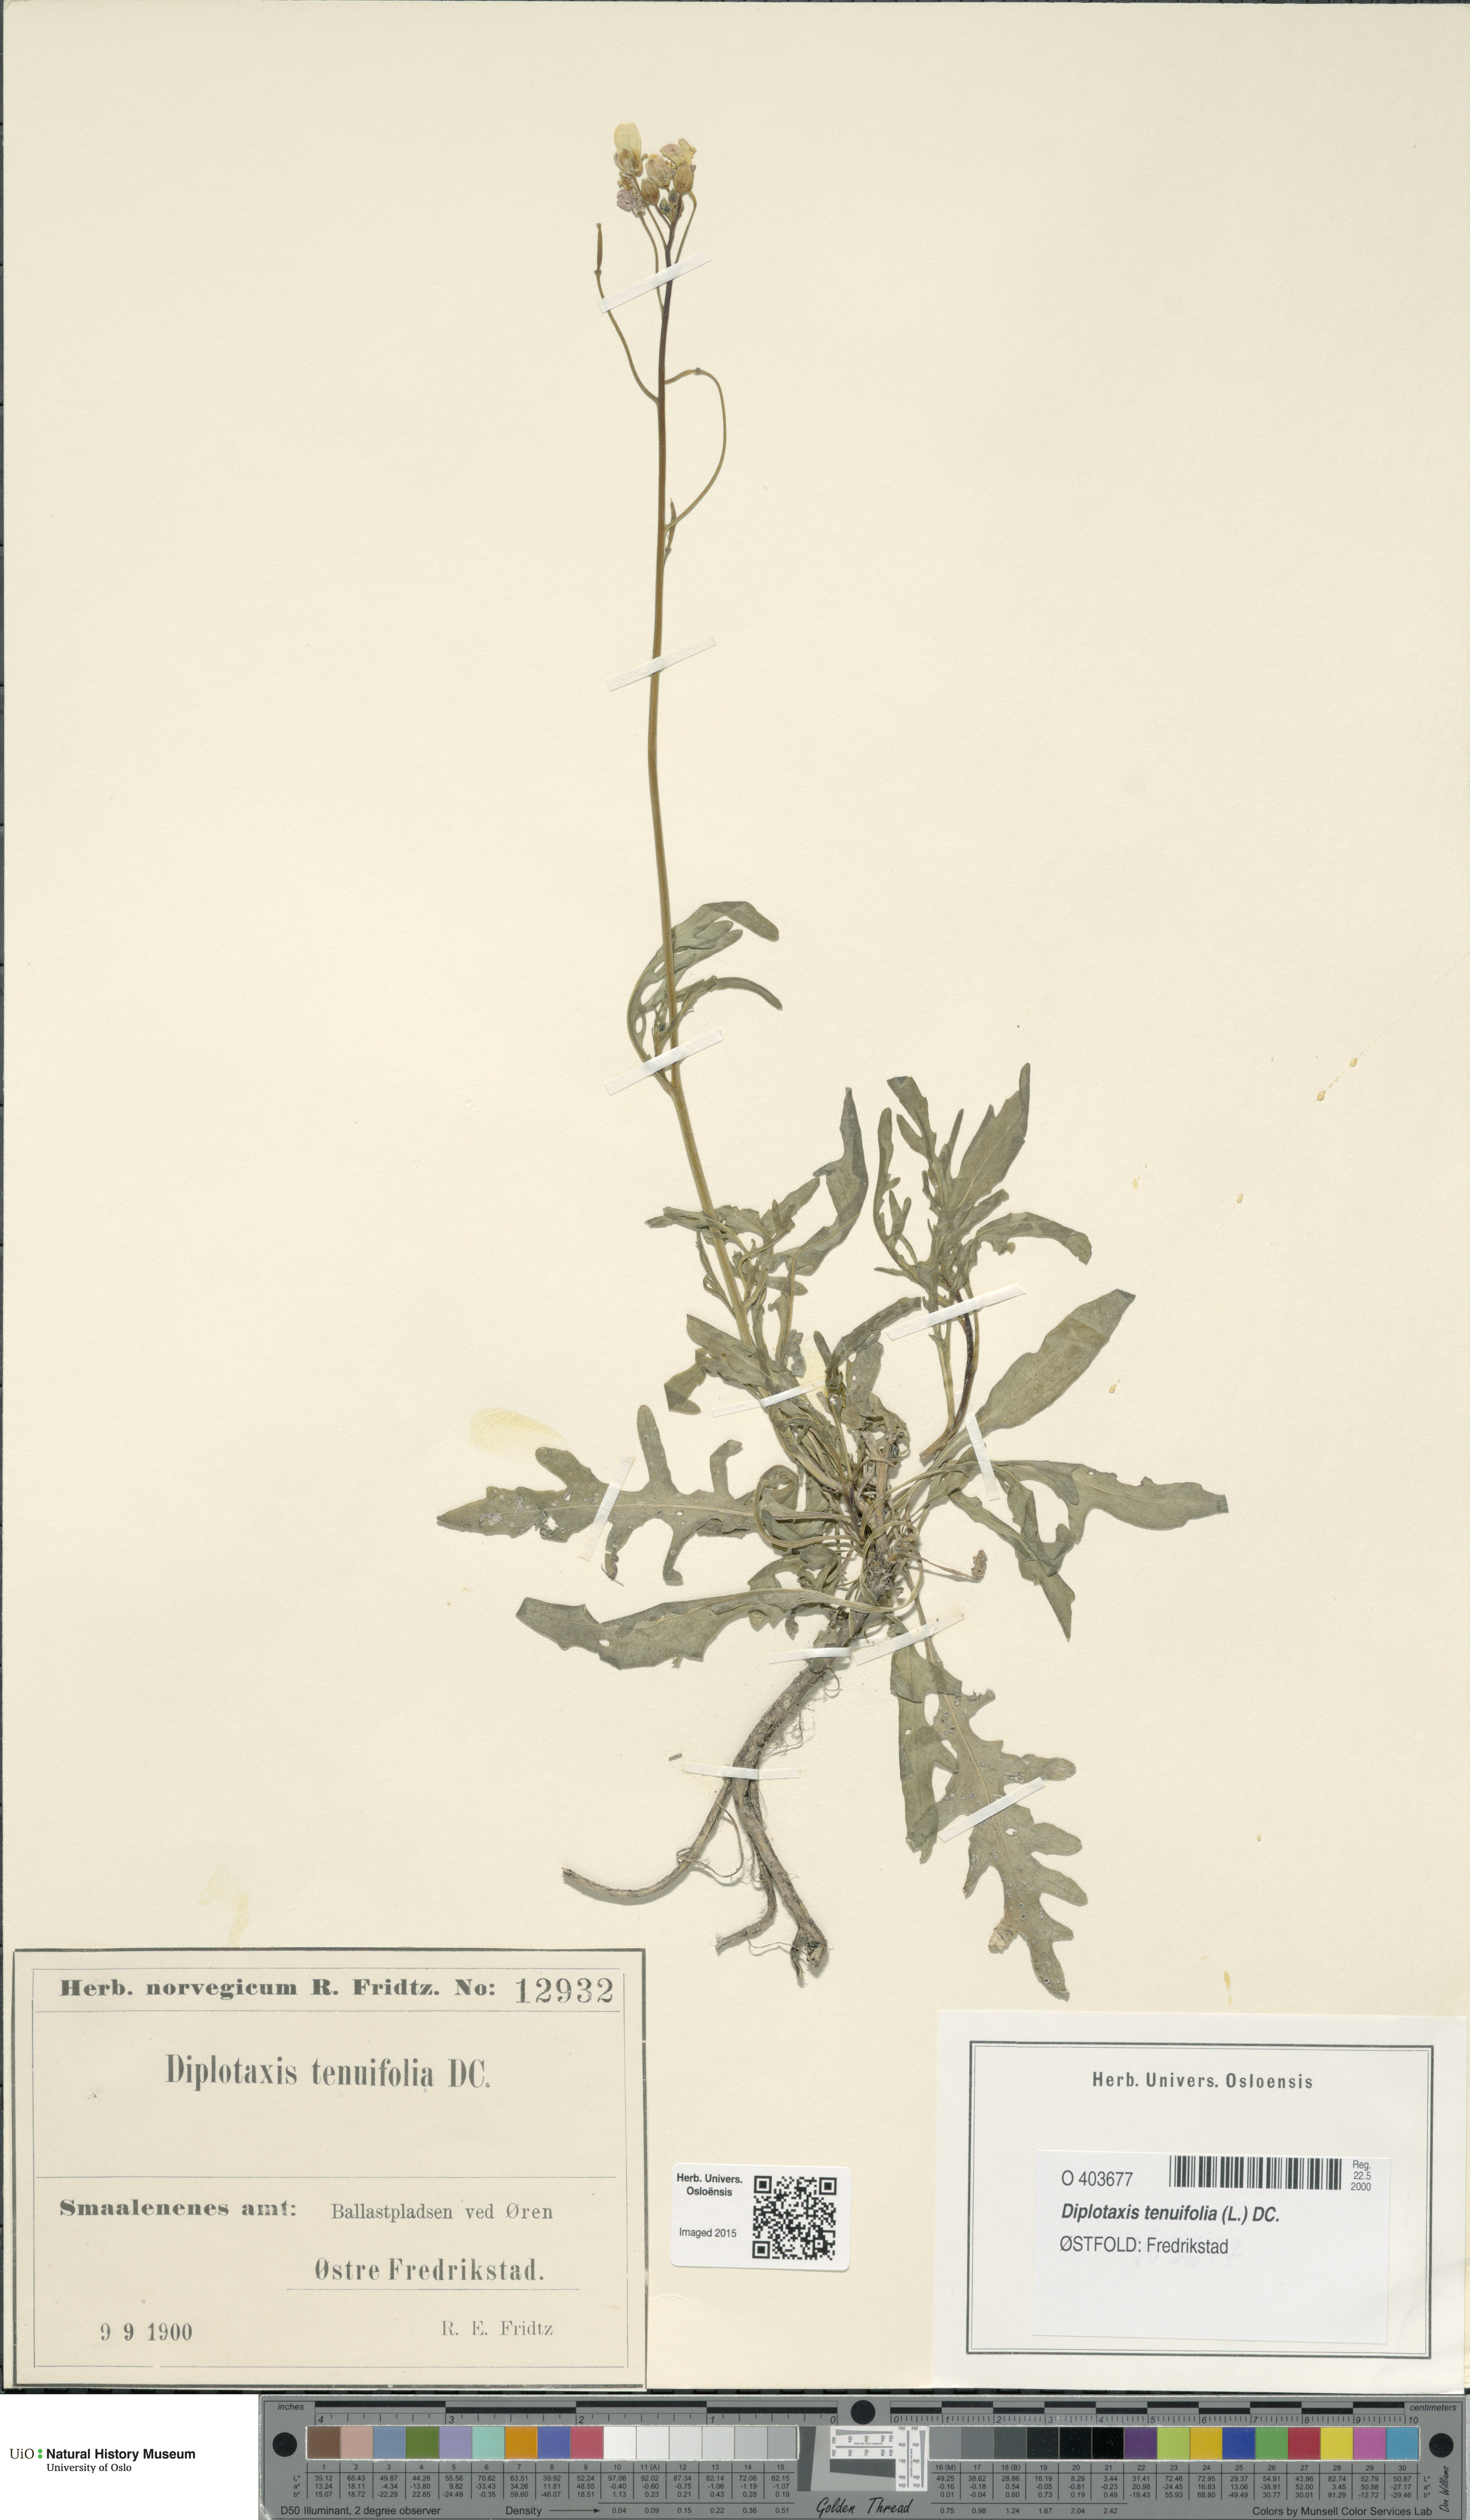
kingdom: Plantae
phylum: Tracheophyta
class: Magnoliopsida
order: Brassicales
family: Brassicaceae
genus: Diplotaxis
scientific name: Diplotaxis tenuifolia
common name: Perennial wall-rocket
